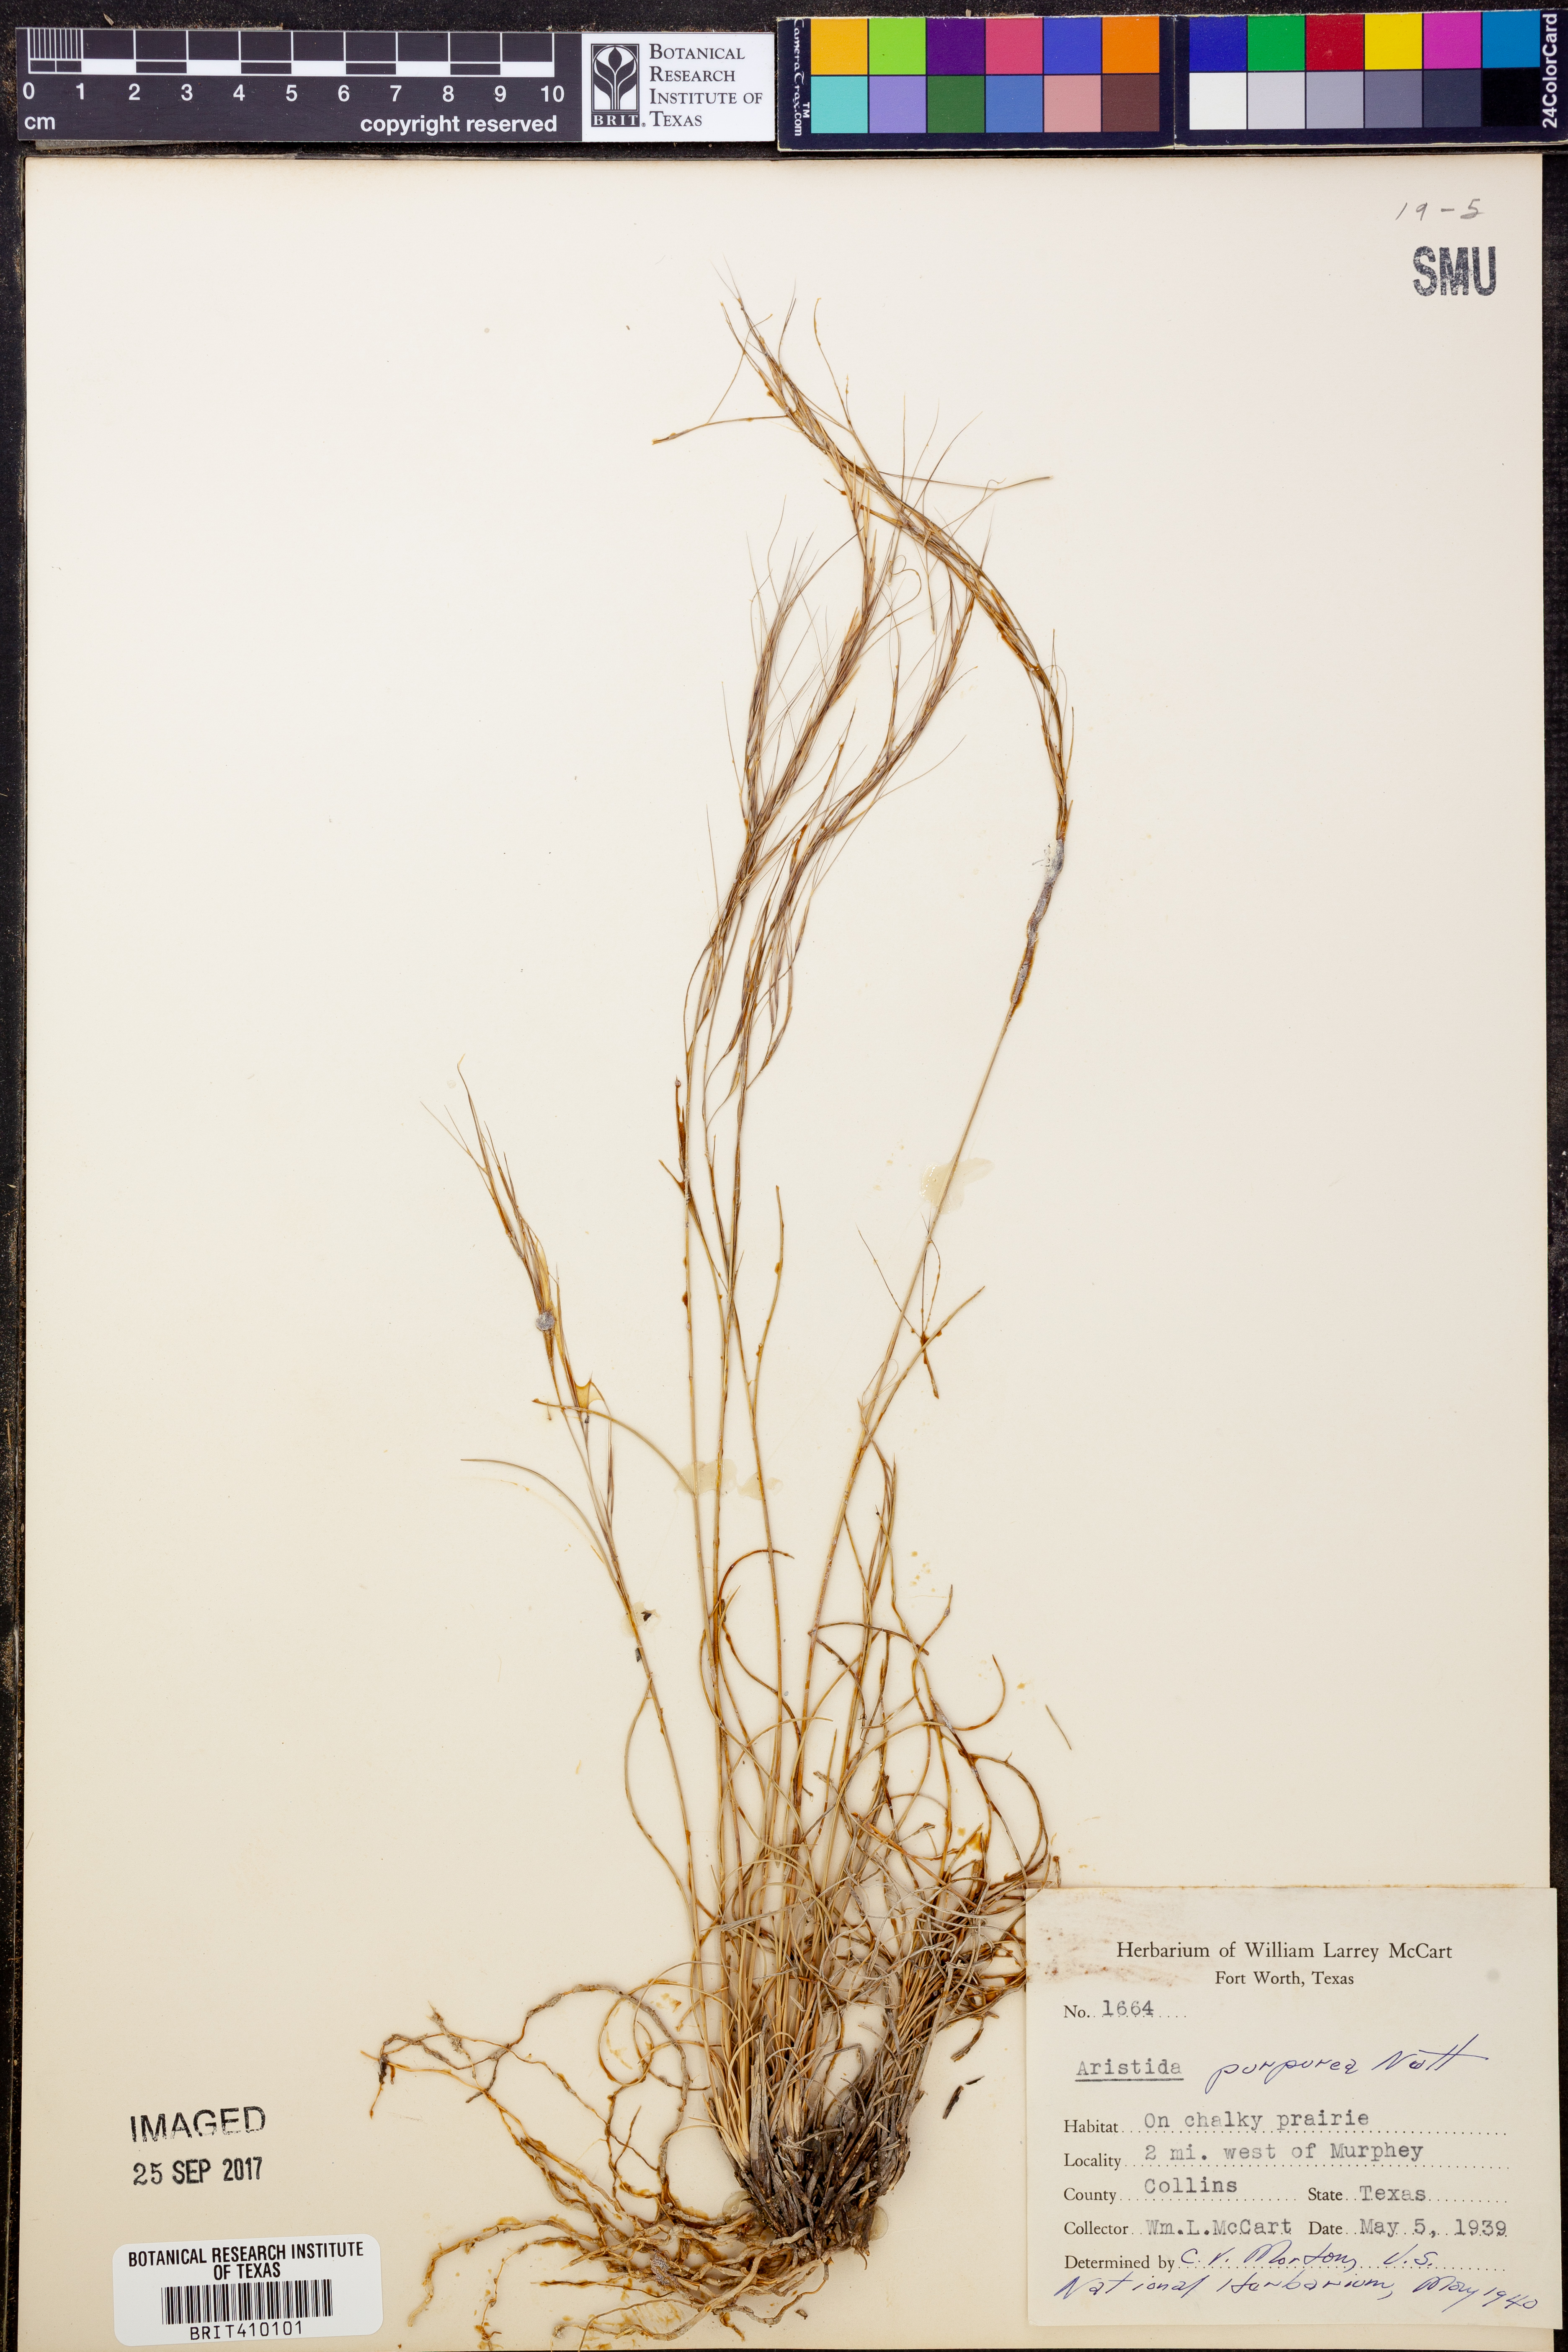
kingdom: Plantae
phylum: Tracheophyta
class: Liliopsida
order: Poales
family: Poaceae
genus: Aristida
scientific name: Aristida purpurea
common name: Purple threeawn
